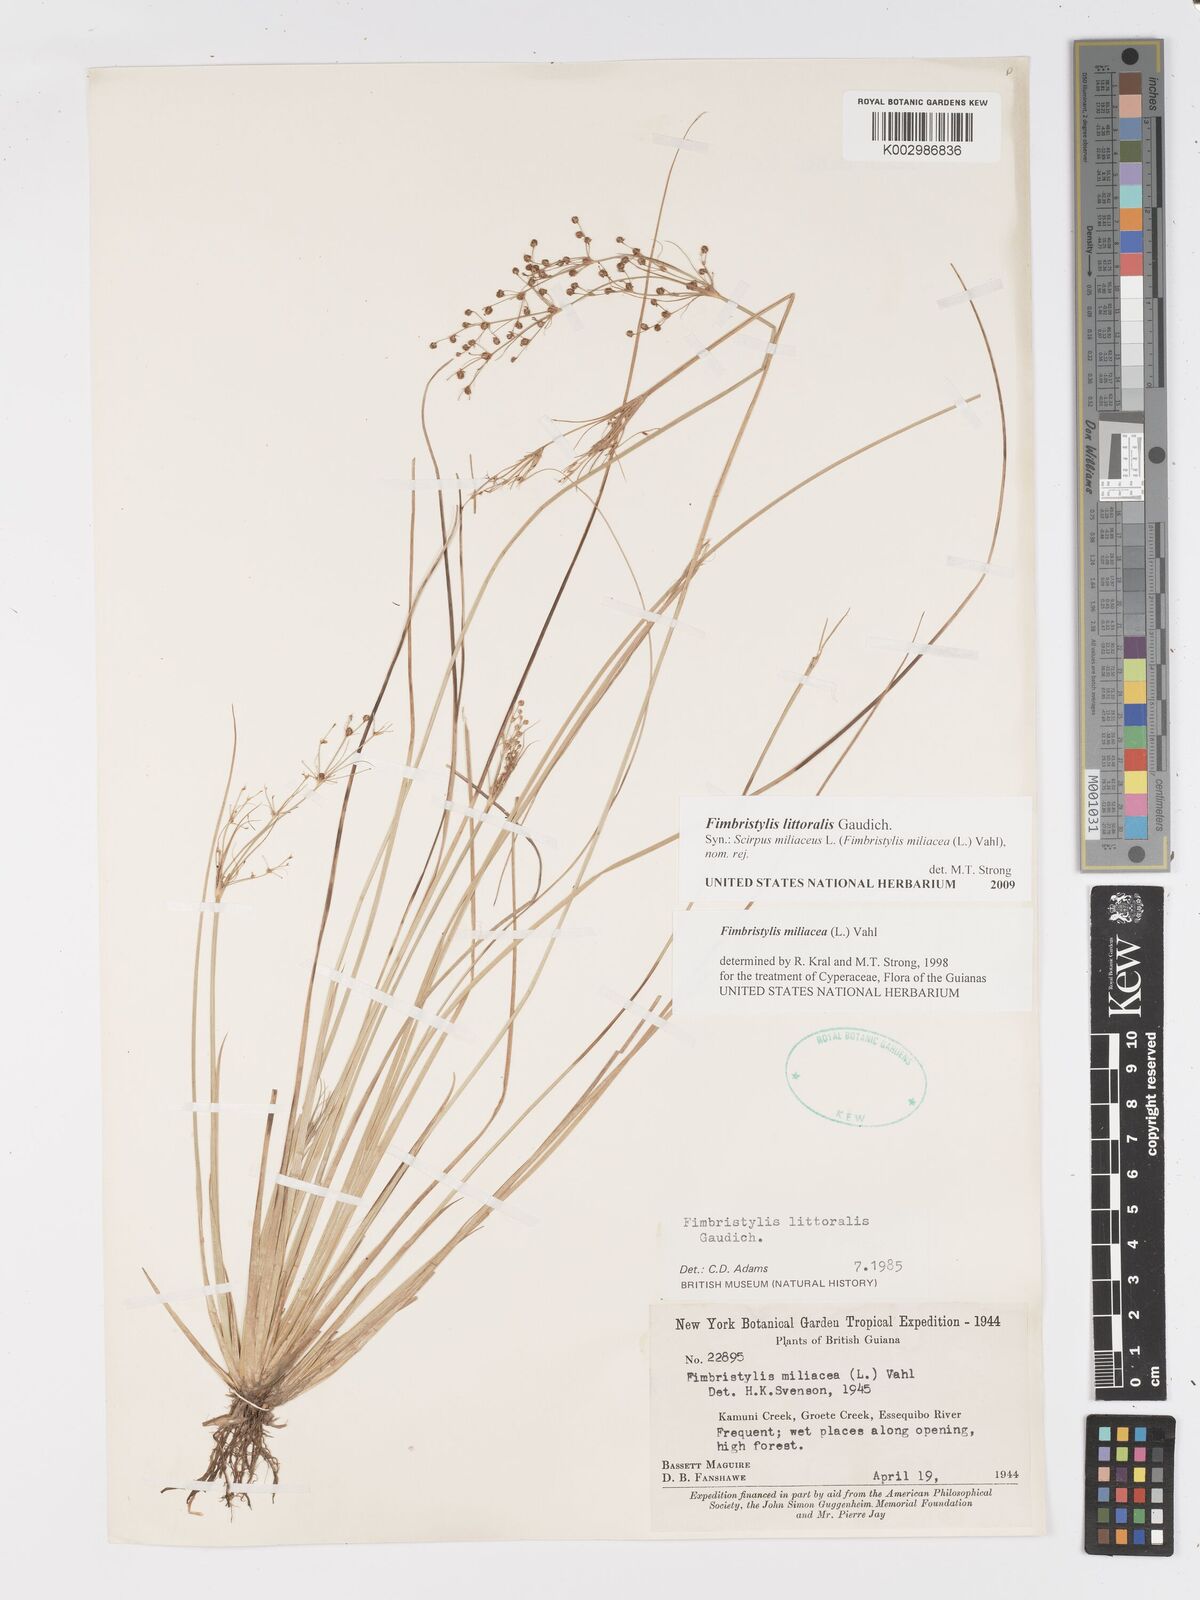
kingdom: Plantae
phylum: Tracheophyta
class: Liliopsida
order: Poales
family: Cyperaceae
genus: Fimbristylis
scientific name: Fimbristylis littoralis
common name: Fimbry
